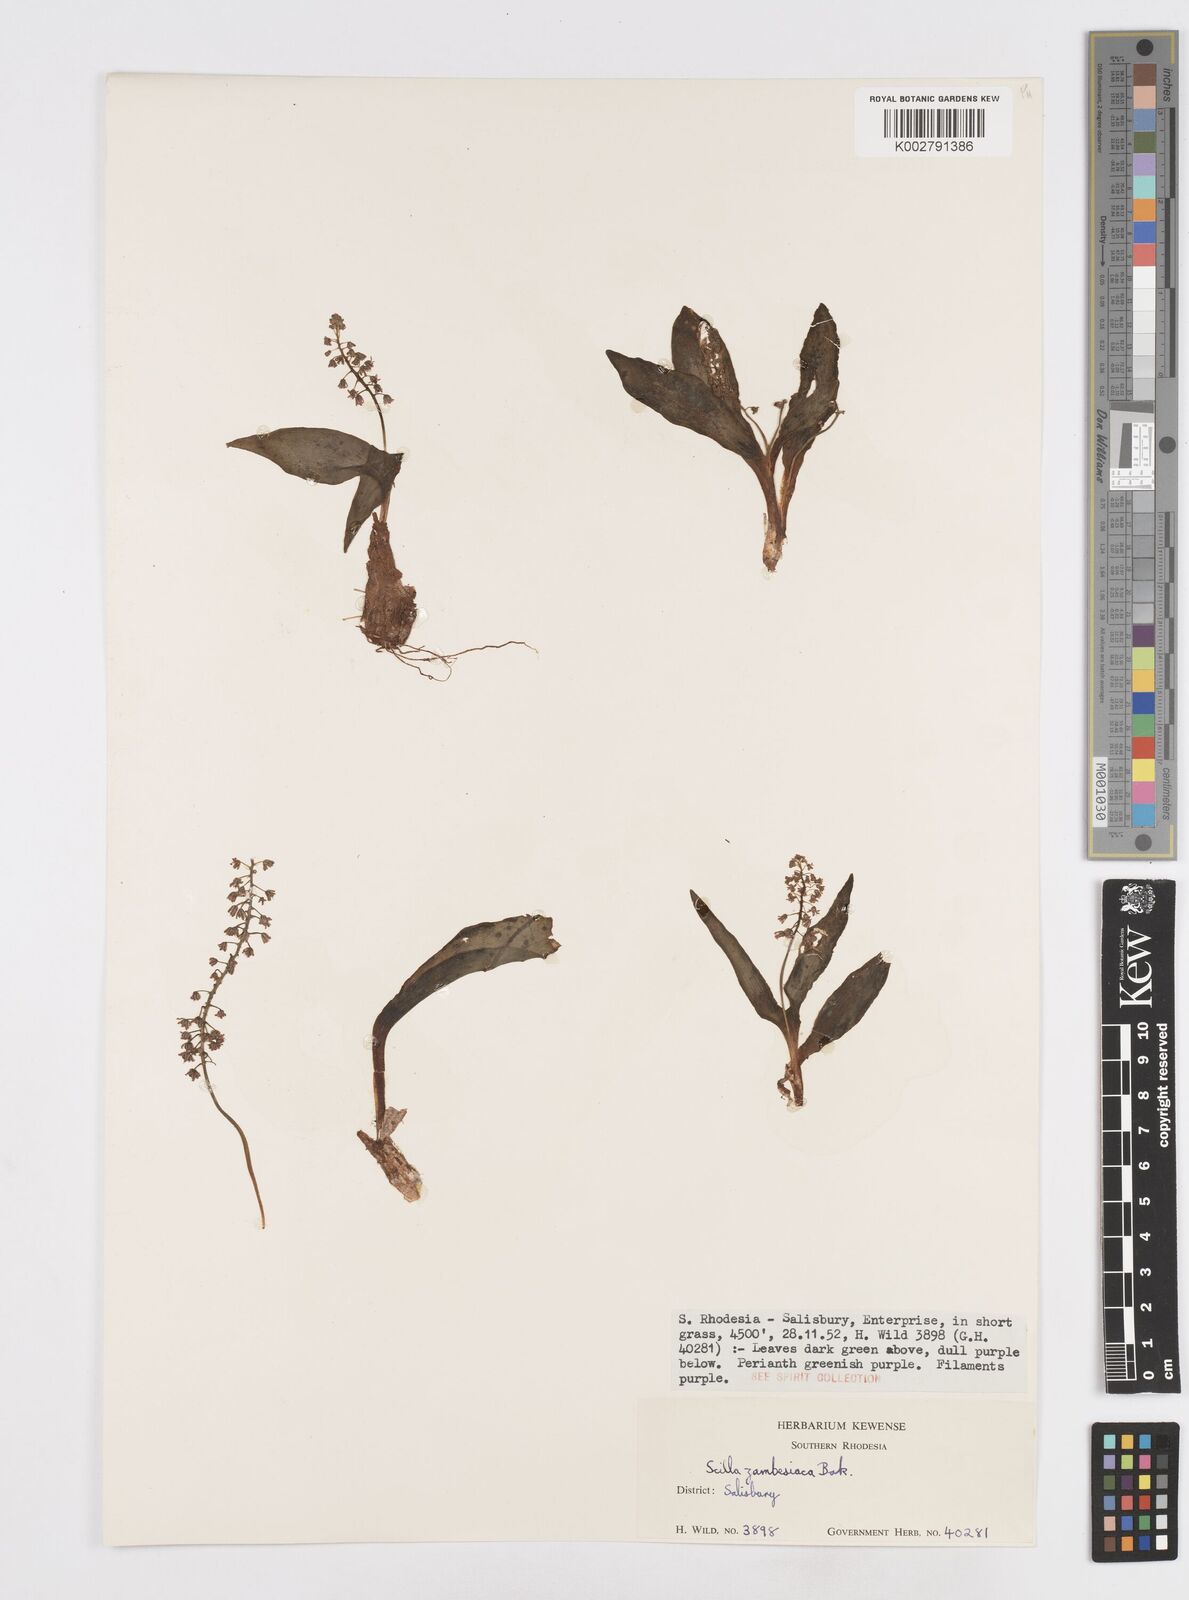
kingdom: Plantae
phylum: Tracheophyta
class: Liliopsida
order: Asparagales
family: Asparagaceae
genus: Ledebouria
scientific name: Ledebouria zambesiaca
